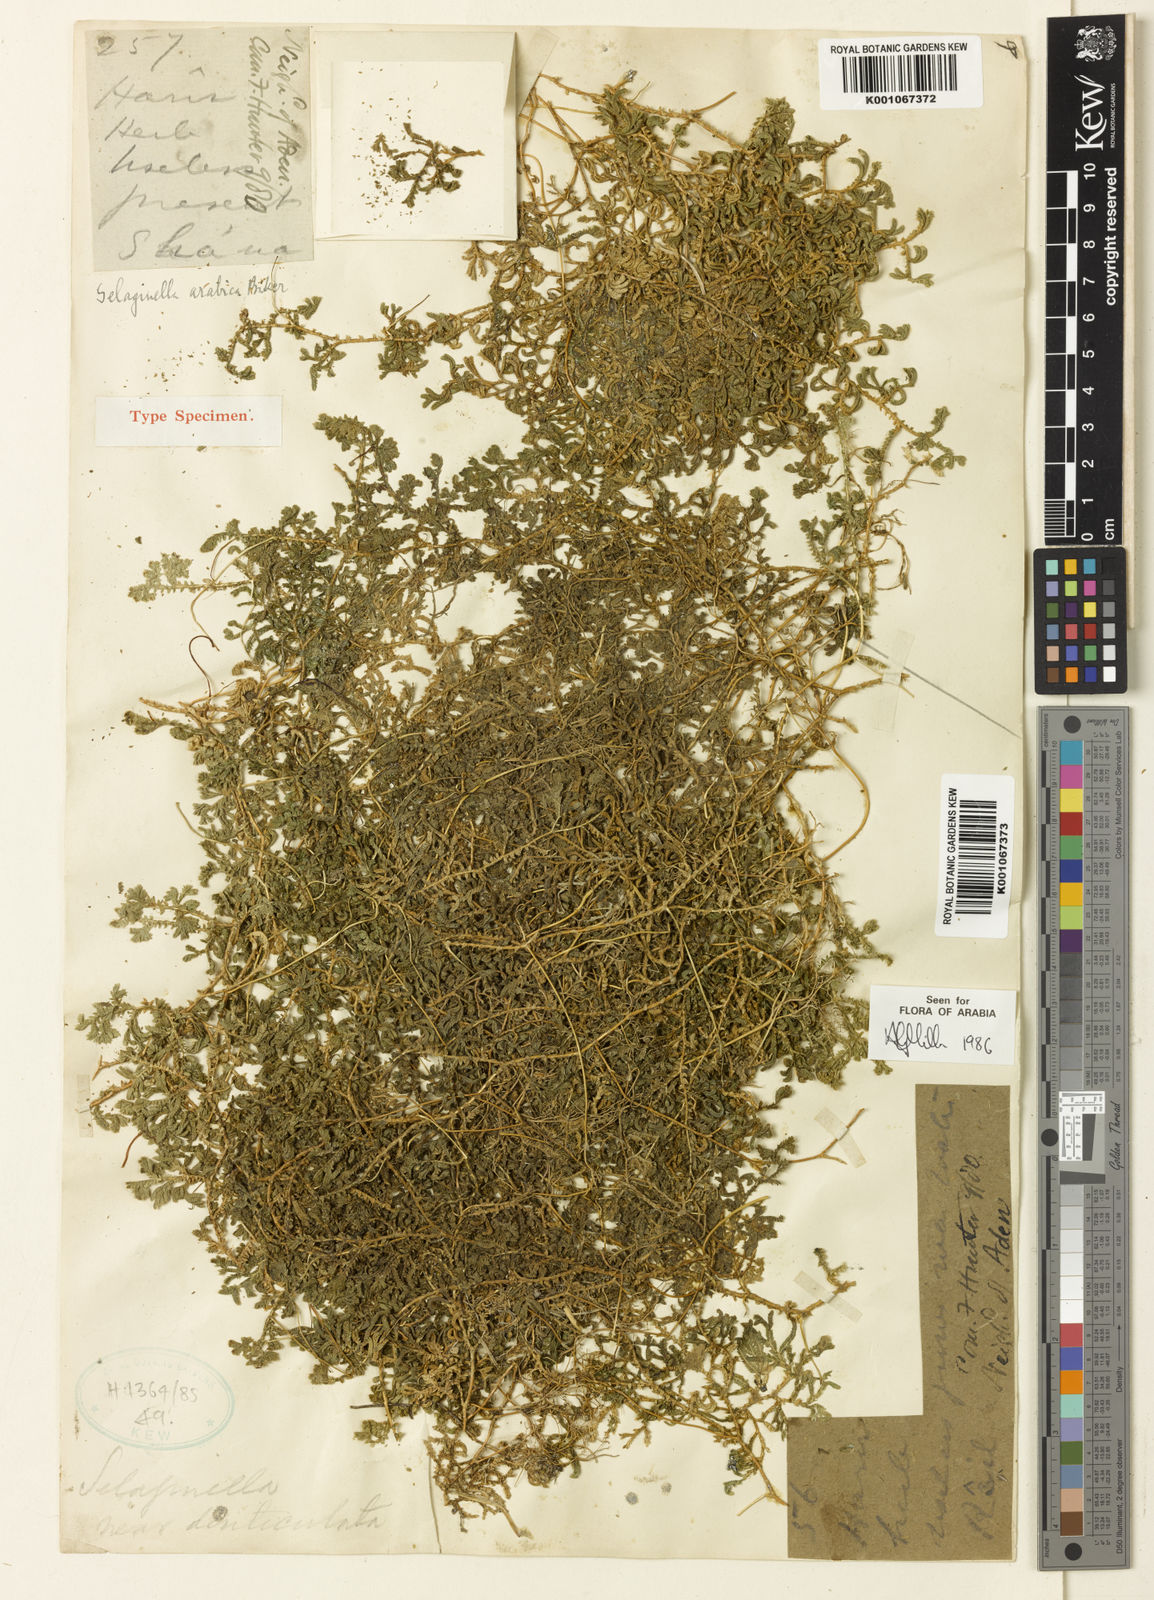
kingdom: Plantae
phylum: Tracheophyta
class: Lycopodiopsida
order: Selaginellales
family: Selaginellaceae
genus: Selaginella
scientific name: Selaginella yemensis
